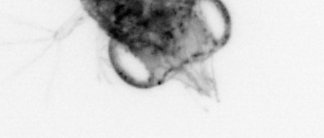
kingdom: Animalia
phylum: Arthropoda
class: Malacostraca
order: Decapoda
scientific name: Decapoda
